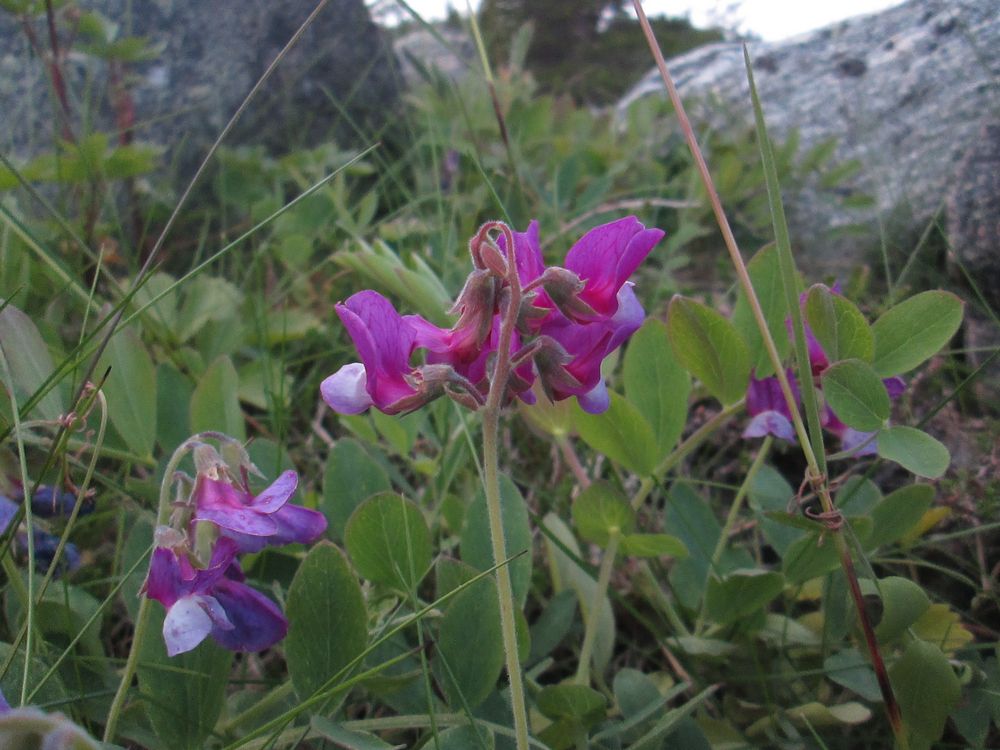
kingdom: Plantae
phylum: Tracheophyta
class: Magnoliopsida
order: Fabales
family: Fabaceae
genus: Lathyrus
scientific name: Lathyrus japonicus
